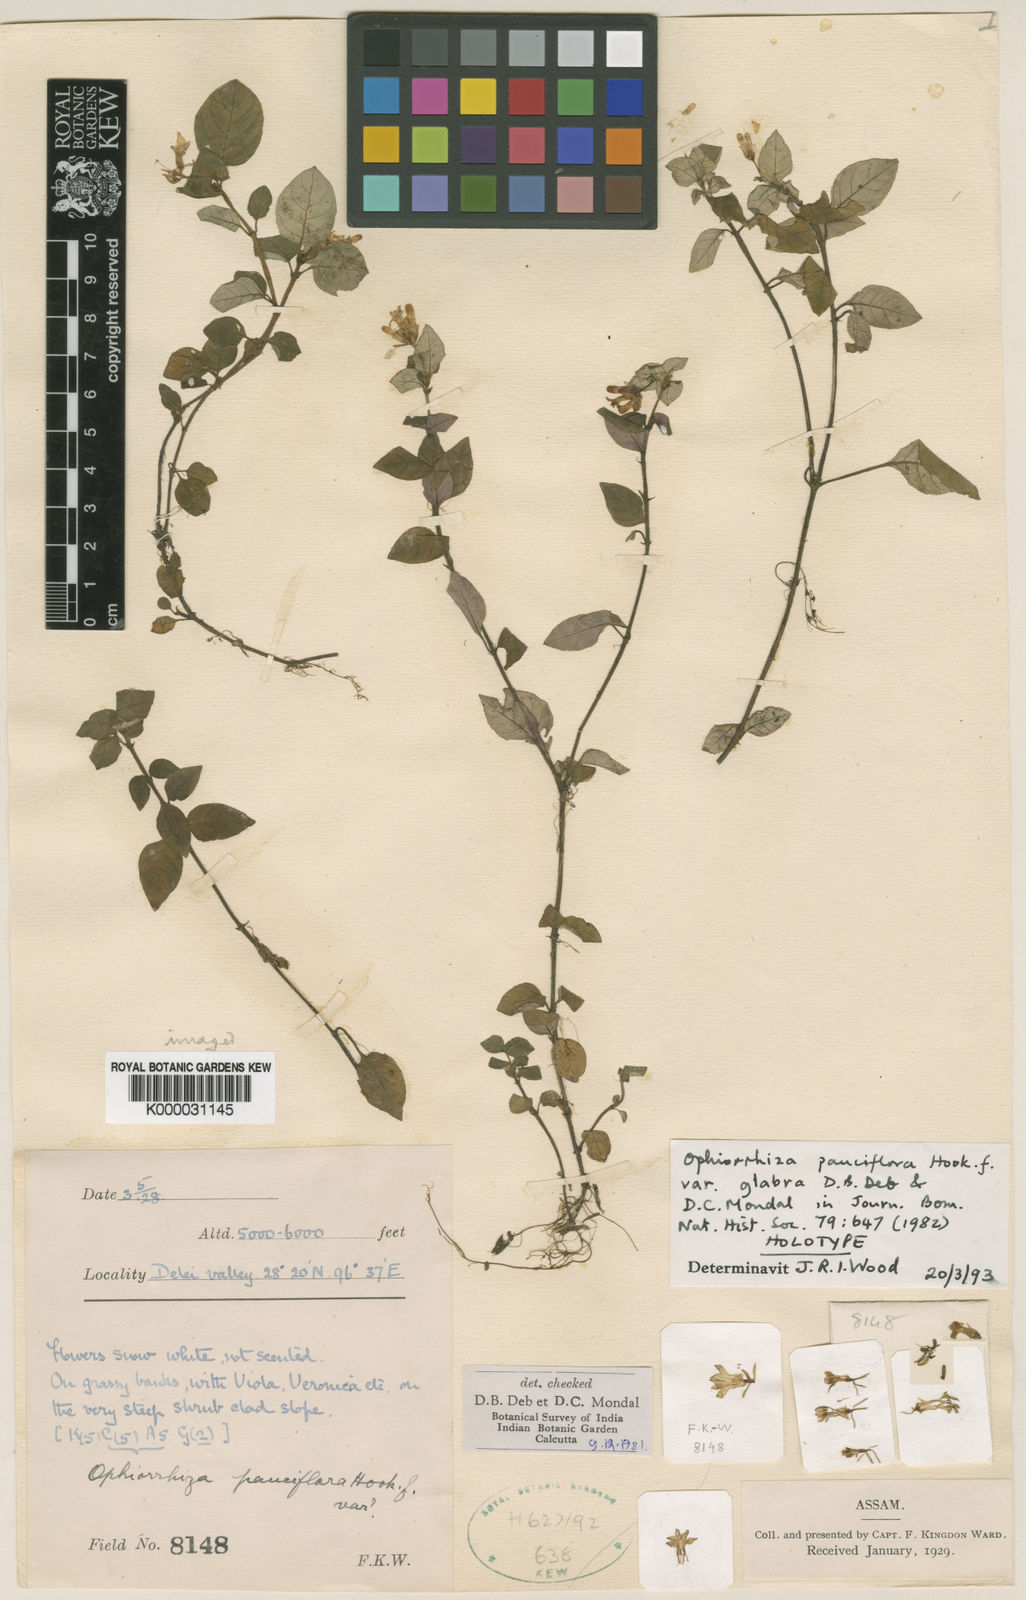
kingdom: Plantae
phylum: Tracheophyta
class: Magnoliopsida
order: Gentianales
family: Rubiaceae
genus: Ophiorrhiza
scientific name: Ophiorrhiza pauciflora
